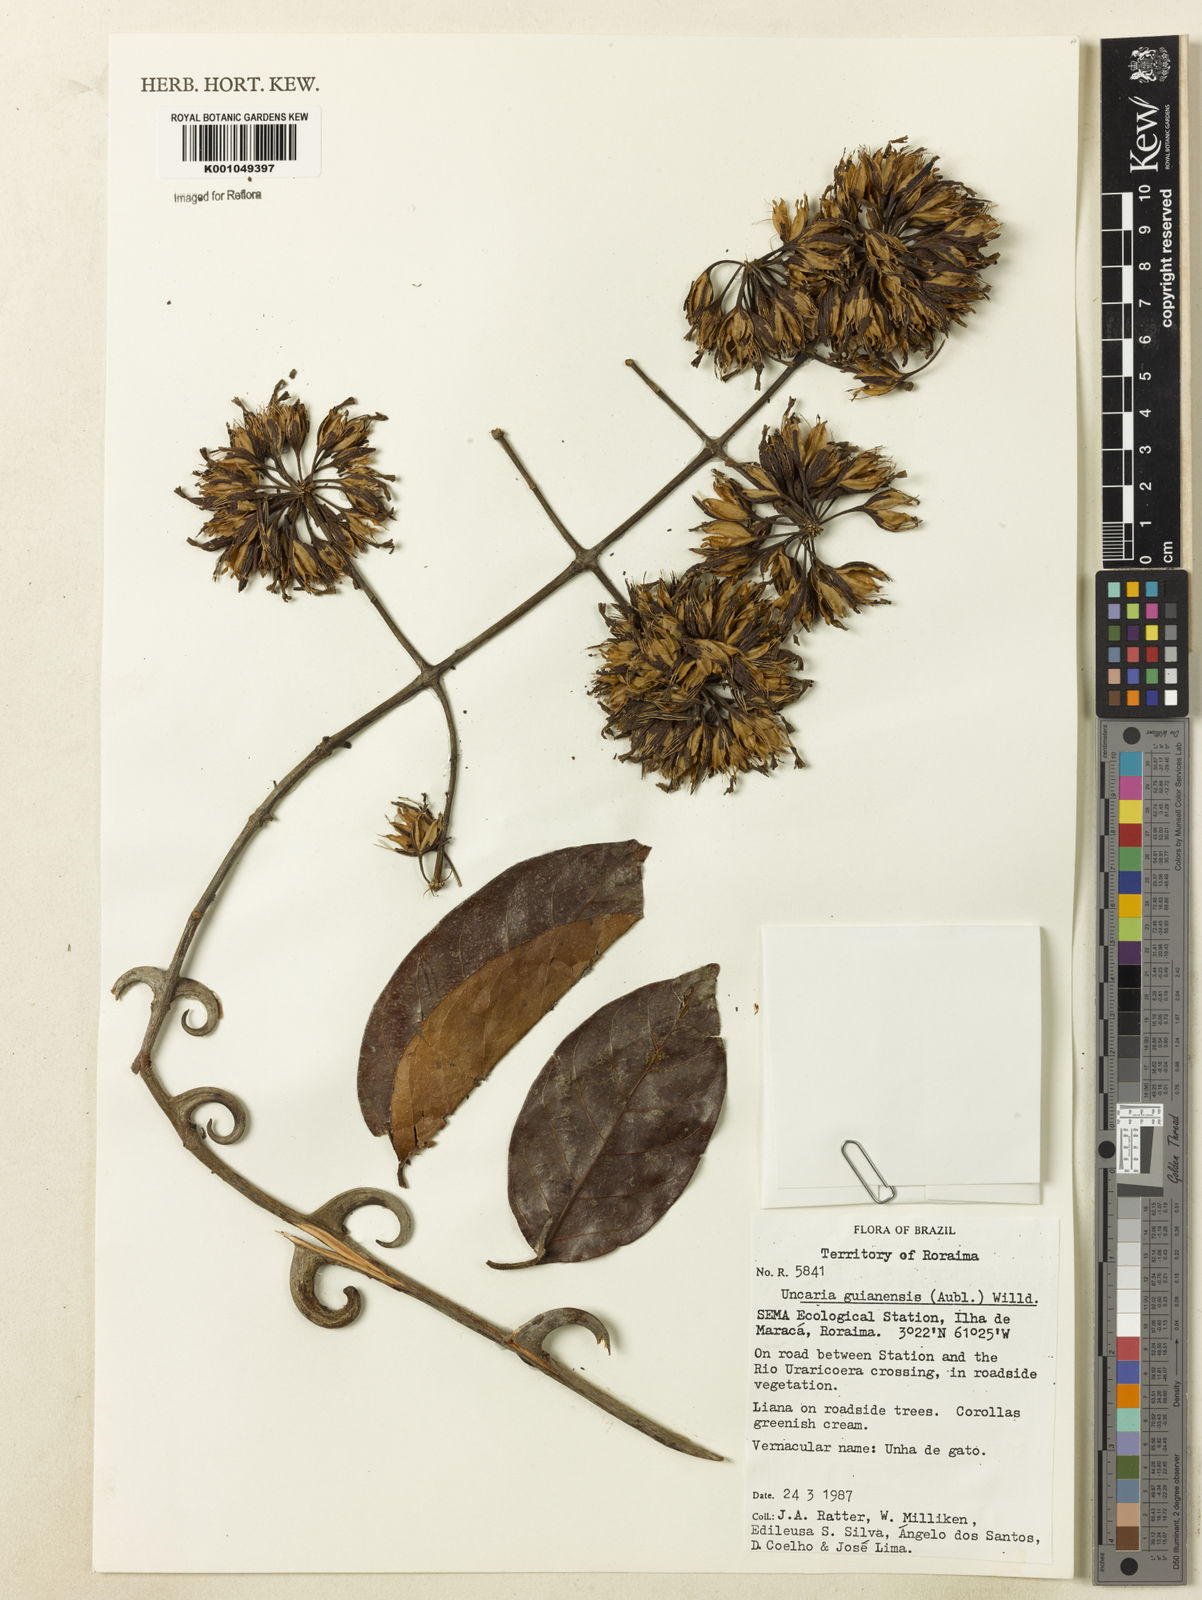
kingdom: Plantae
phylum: Tracheophyta
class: Magnoliopsida
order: Gentianales
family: Rubiaceae
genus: Uncaria
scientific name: Uncaria guianensis
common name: Cat's-claw
